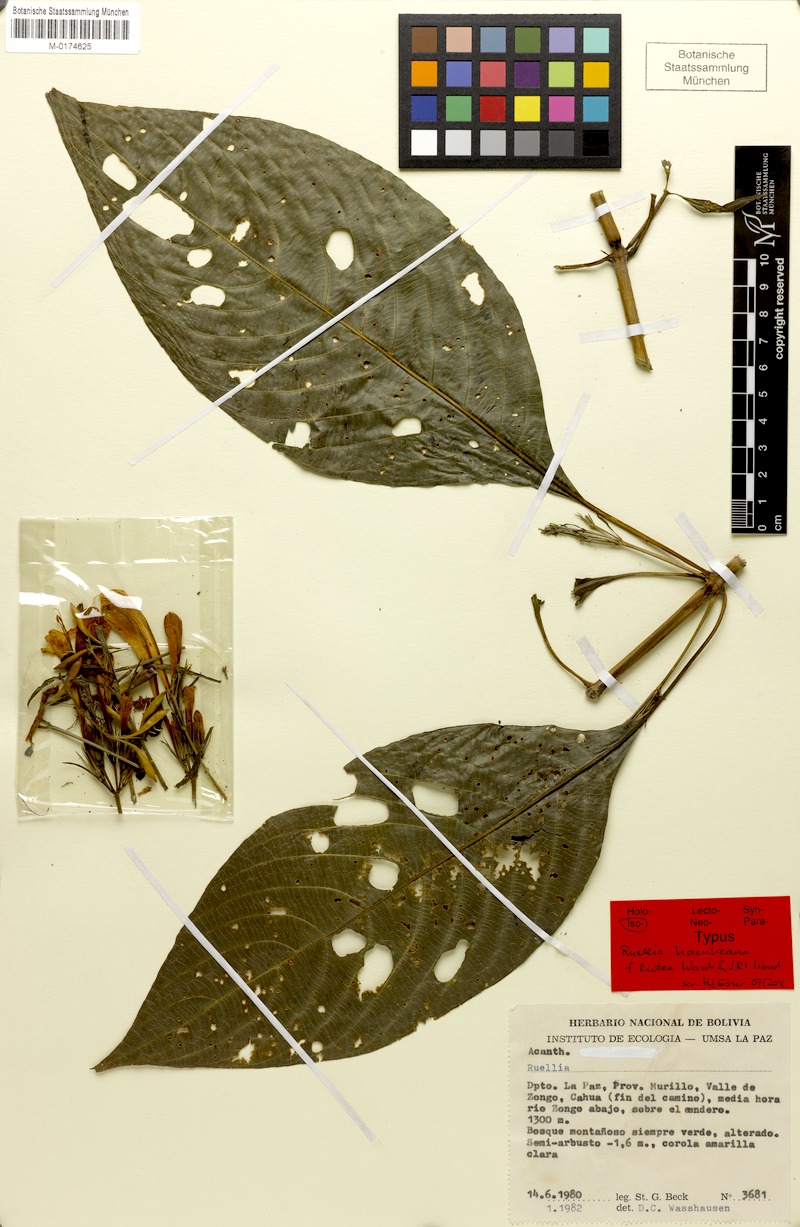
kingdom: Plantae
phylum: Tracheophyta
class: Magnoliopsida
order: Lamiales
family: Acanthaceae
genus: Ruellia
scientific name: Ruellia haenkeana
